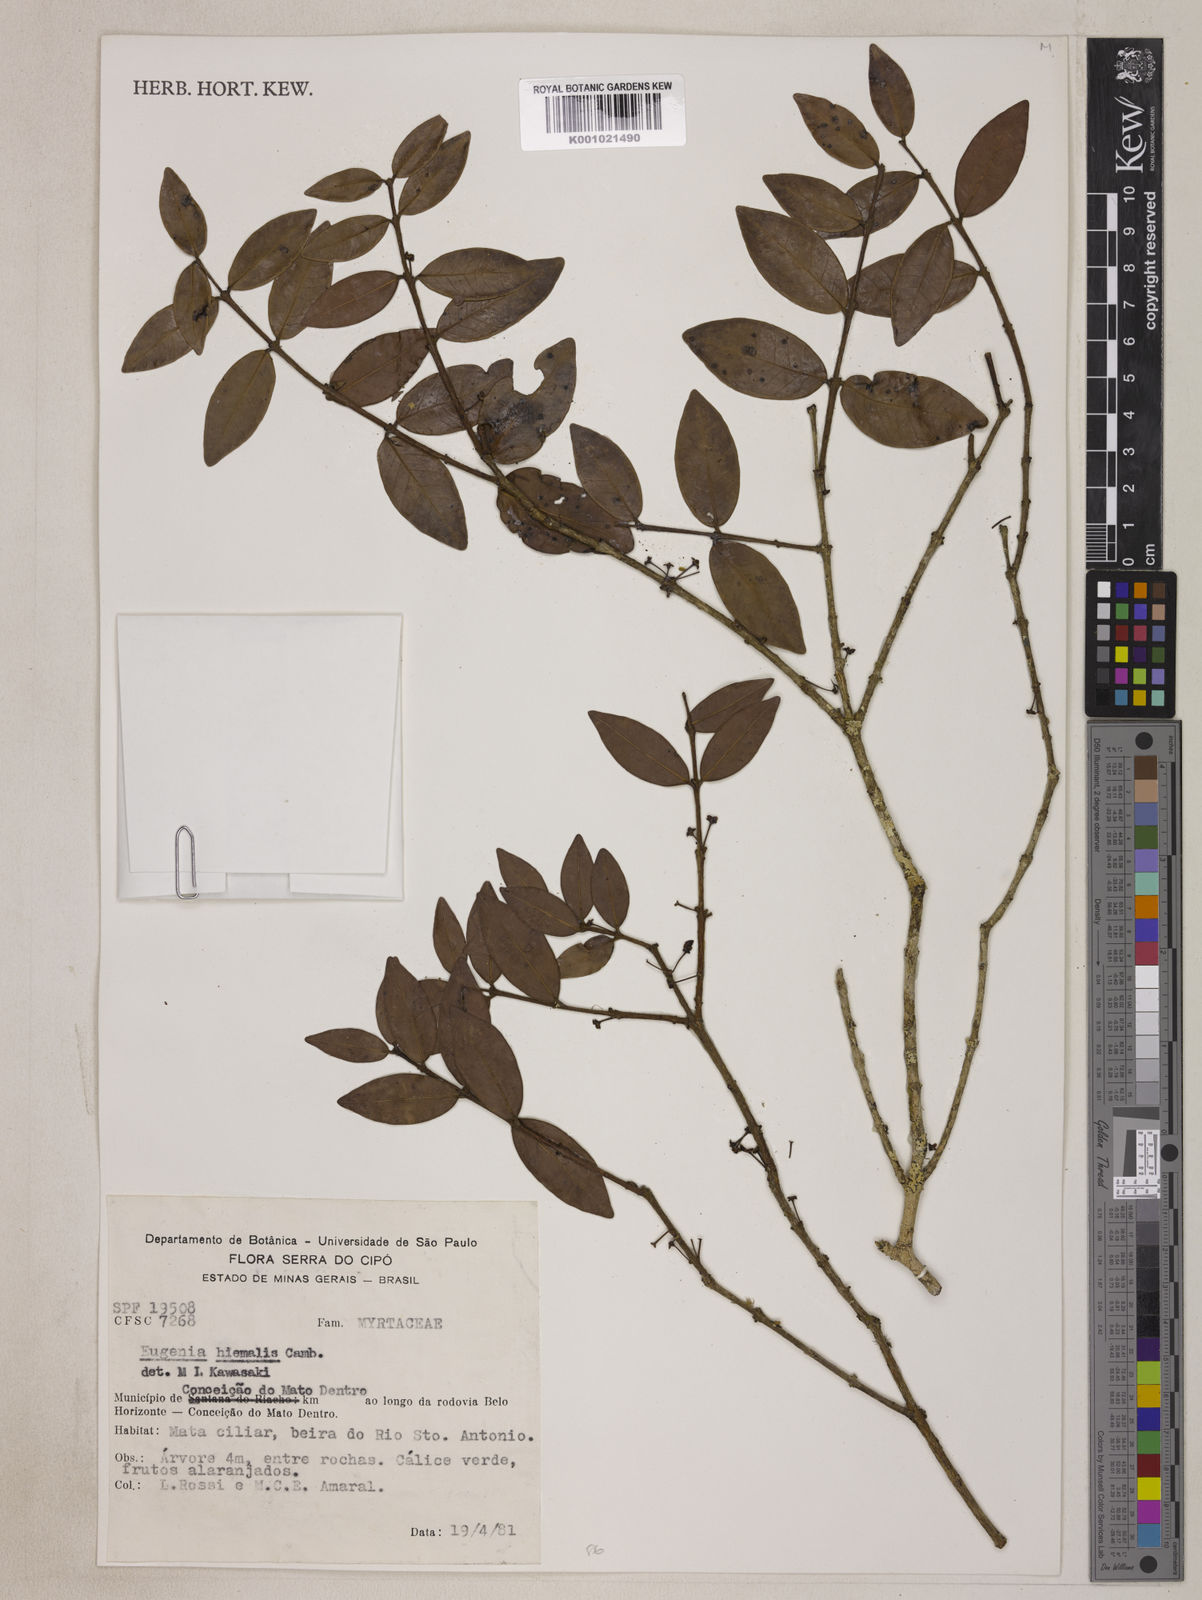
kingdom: Plantae
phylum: Tracheophyta
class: Magnoliopsida
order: Myrtales
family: Myrtaceae
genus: Eugenia
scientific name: Eugenia hiemalis
